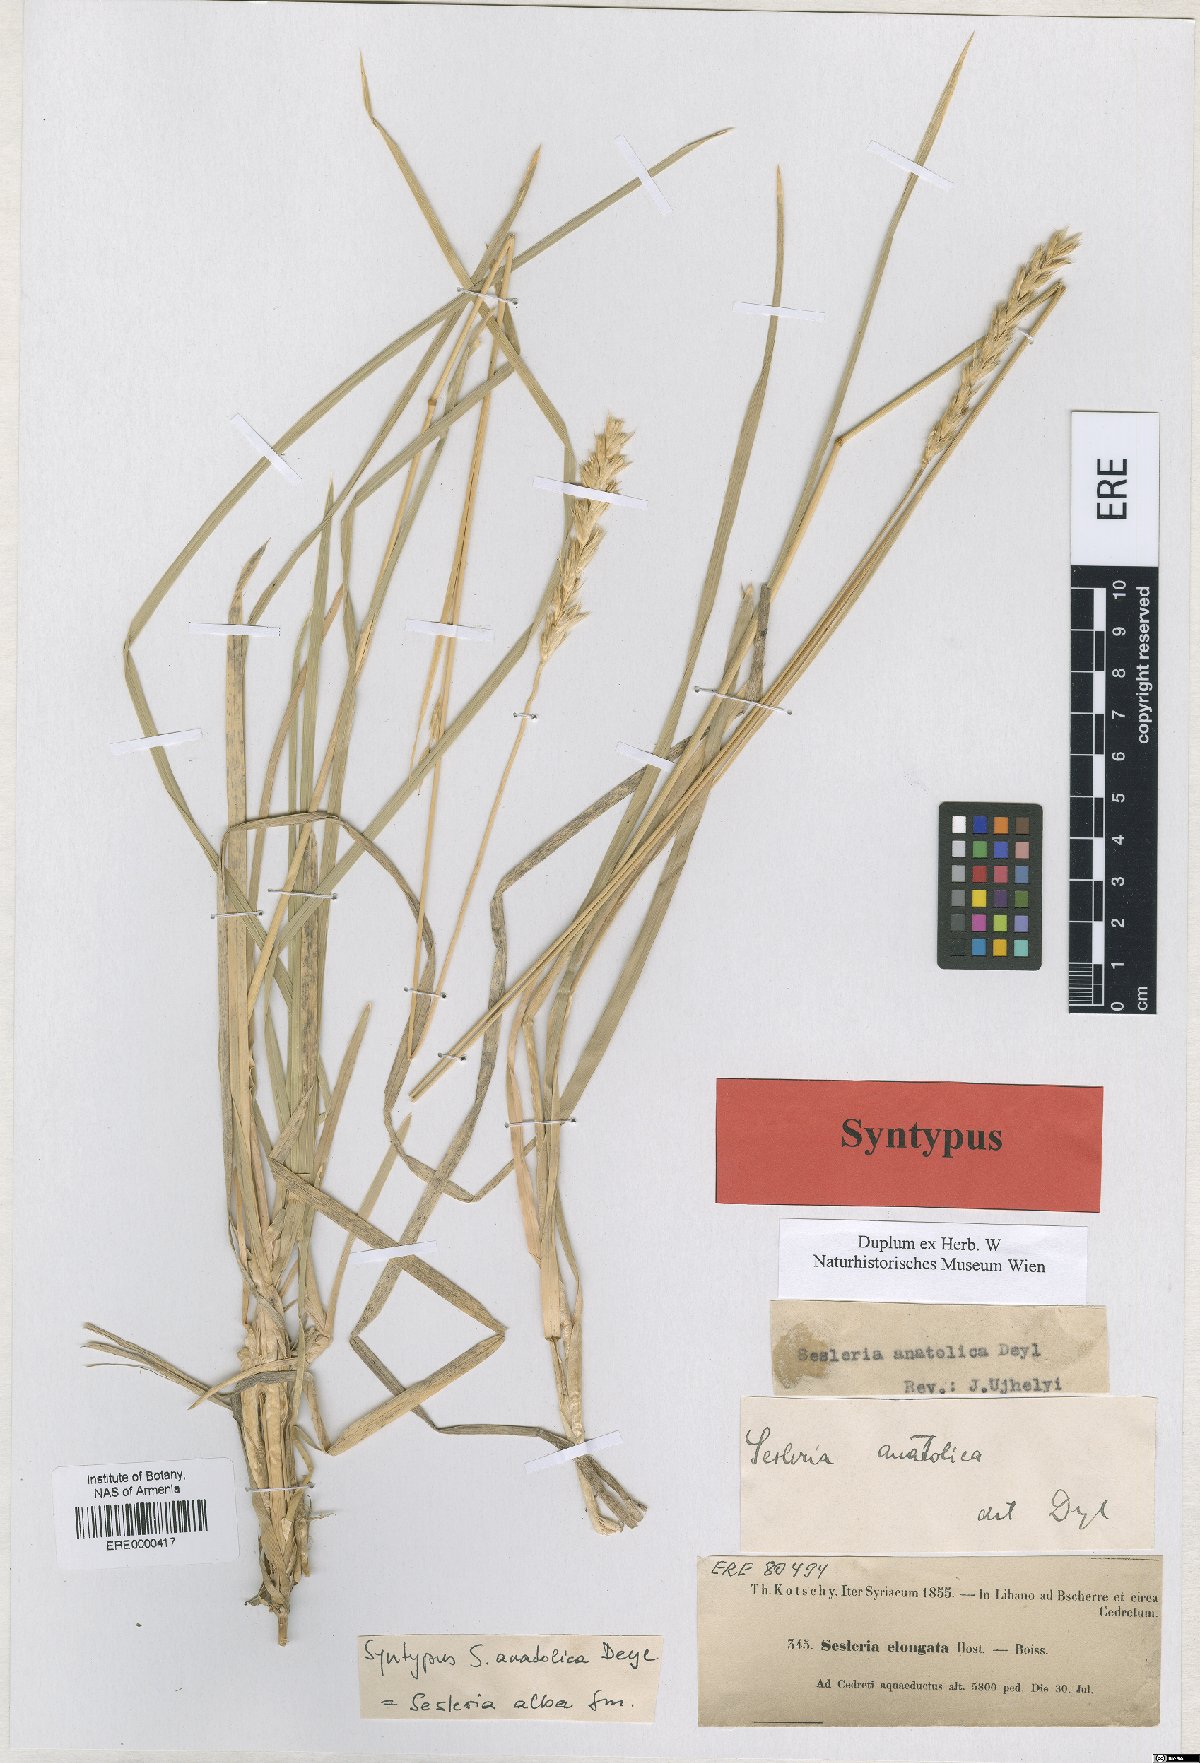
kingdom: Plantae
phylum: Tracheophyta
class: Liliopsida
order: Poales
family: Poaceae
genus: Sesleria
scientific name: Sesleria alba
